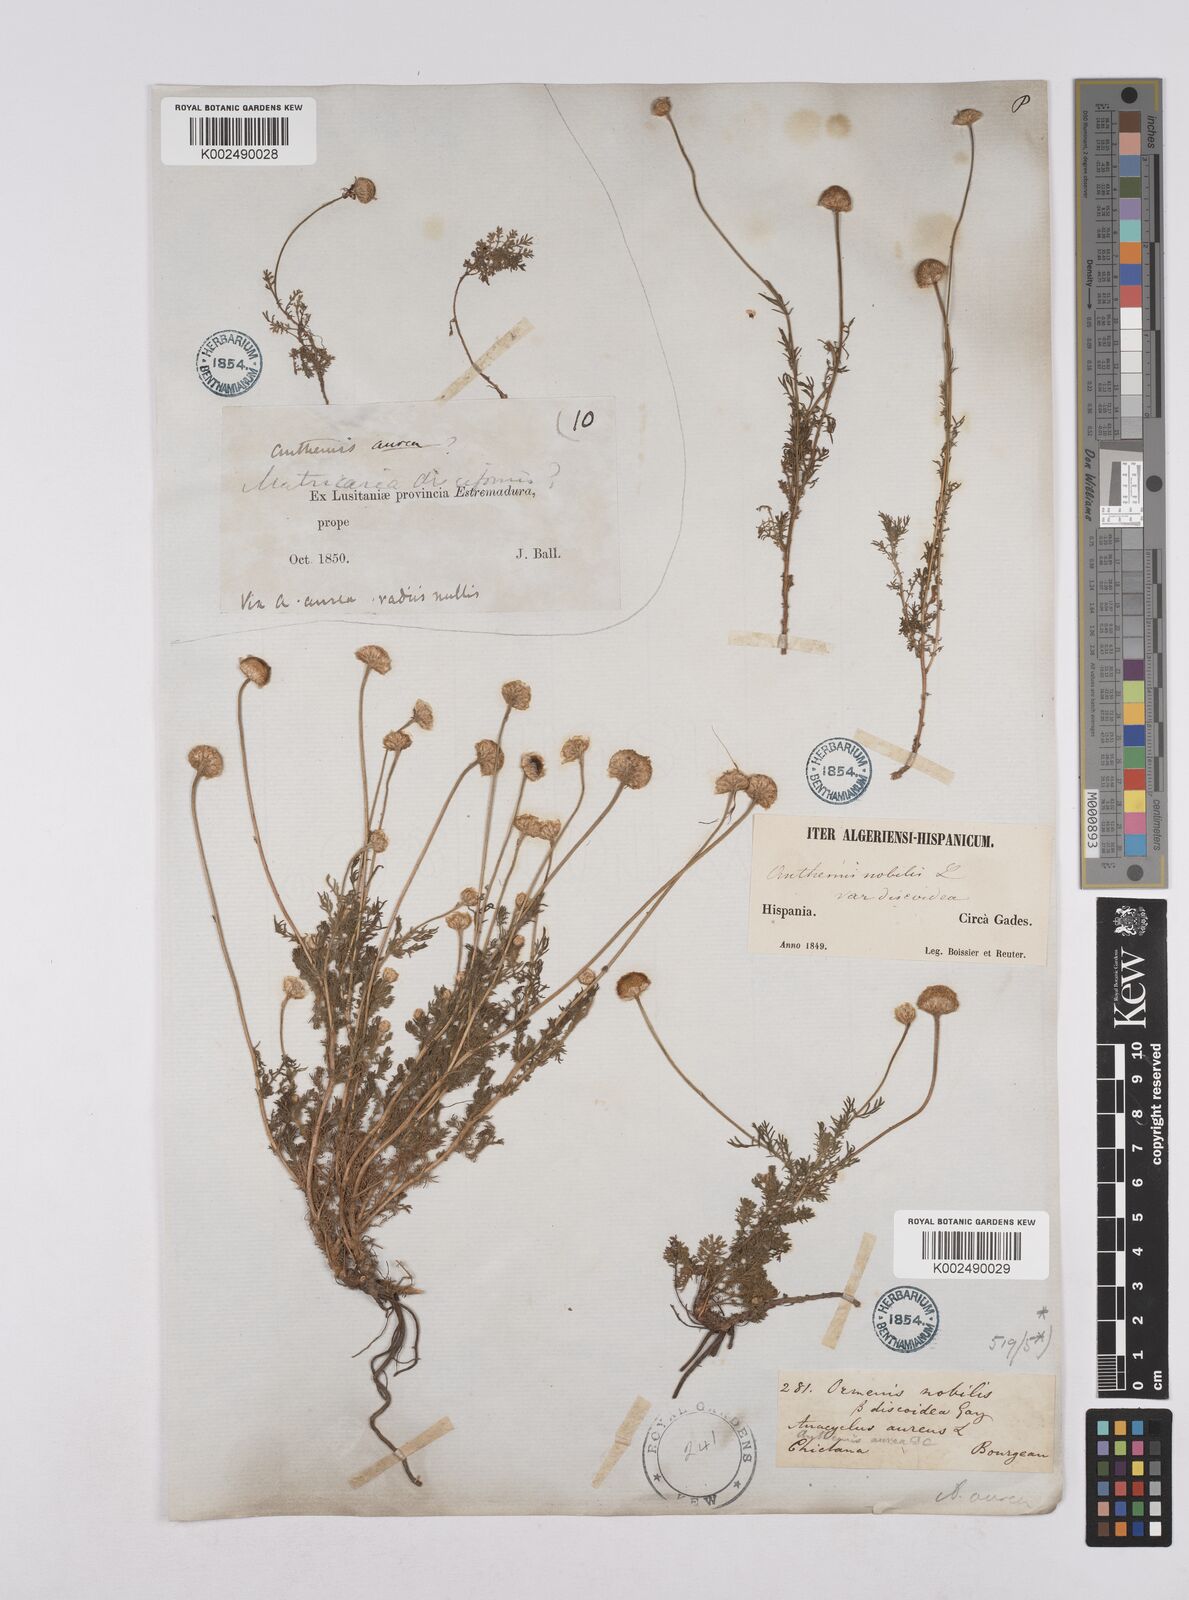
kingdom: Plantae
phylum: Tracheophyta
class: Magnoliopsida
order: Asterales
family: Asteraceae
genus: Matricaria
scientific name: Matricaria aurea
